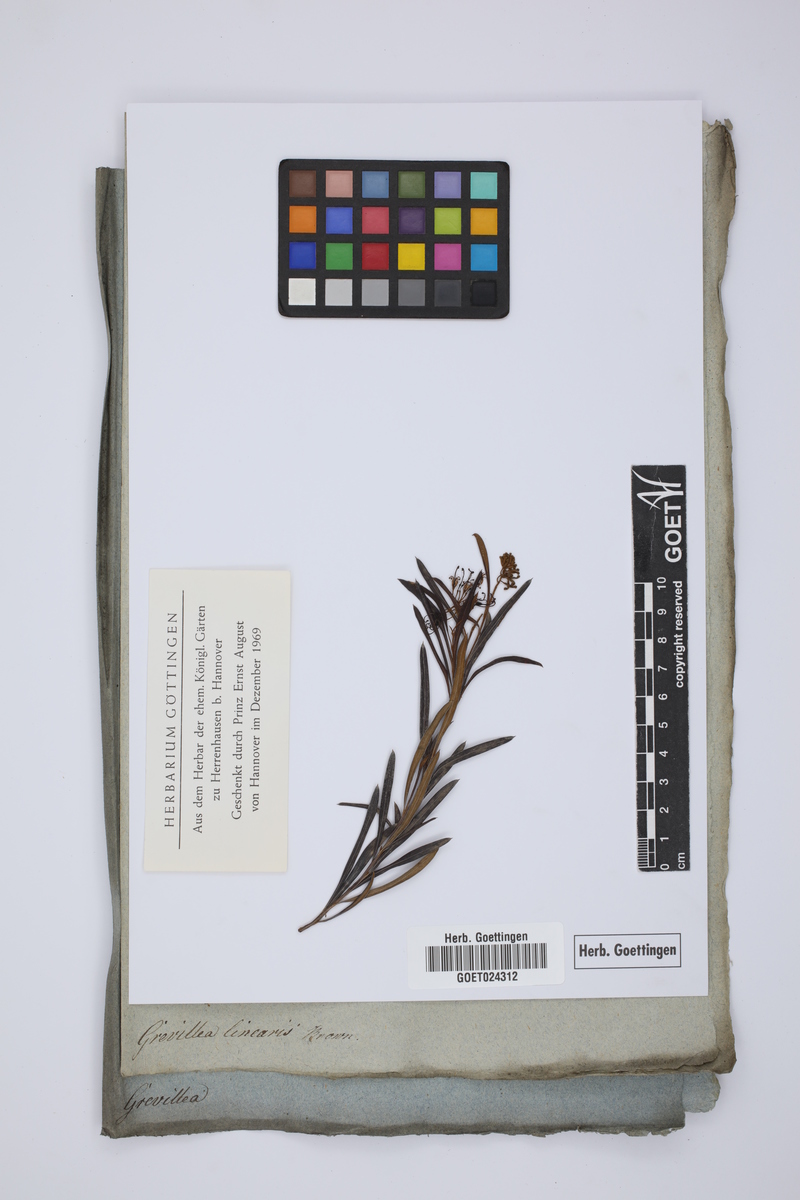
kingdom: Plantae
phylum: Tracheophyta
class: Magnoliopsida
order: Proteales
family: Proteaceae
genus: Grevillea
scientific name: Grevillea linearifolia
